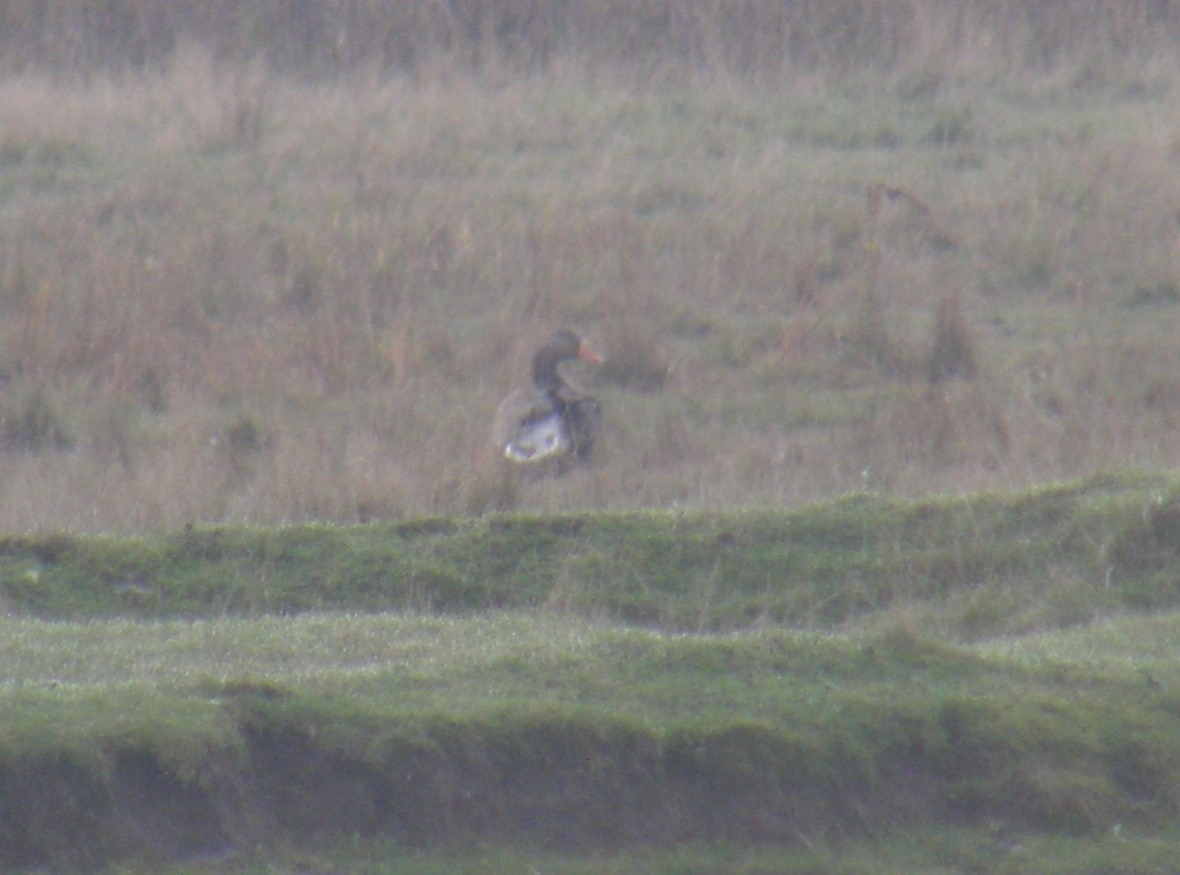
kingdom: Animalia
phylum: Chordata
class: Aves
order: Anseriformes
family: Anatidae
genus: Anser
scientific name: Anser anser
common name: Grågås
